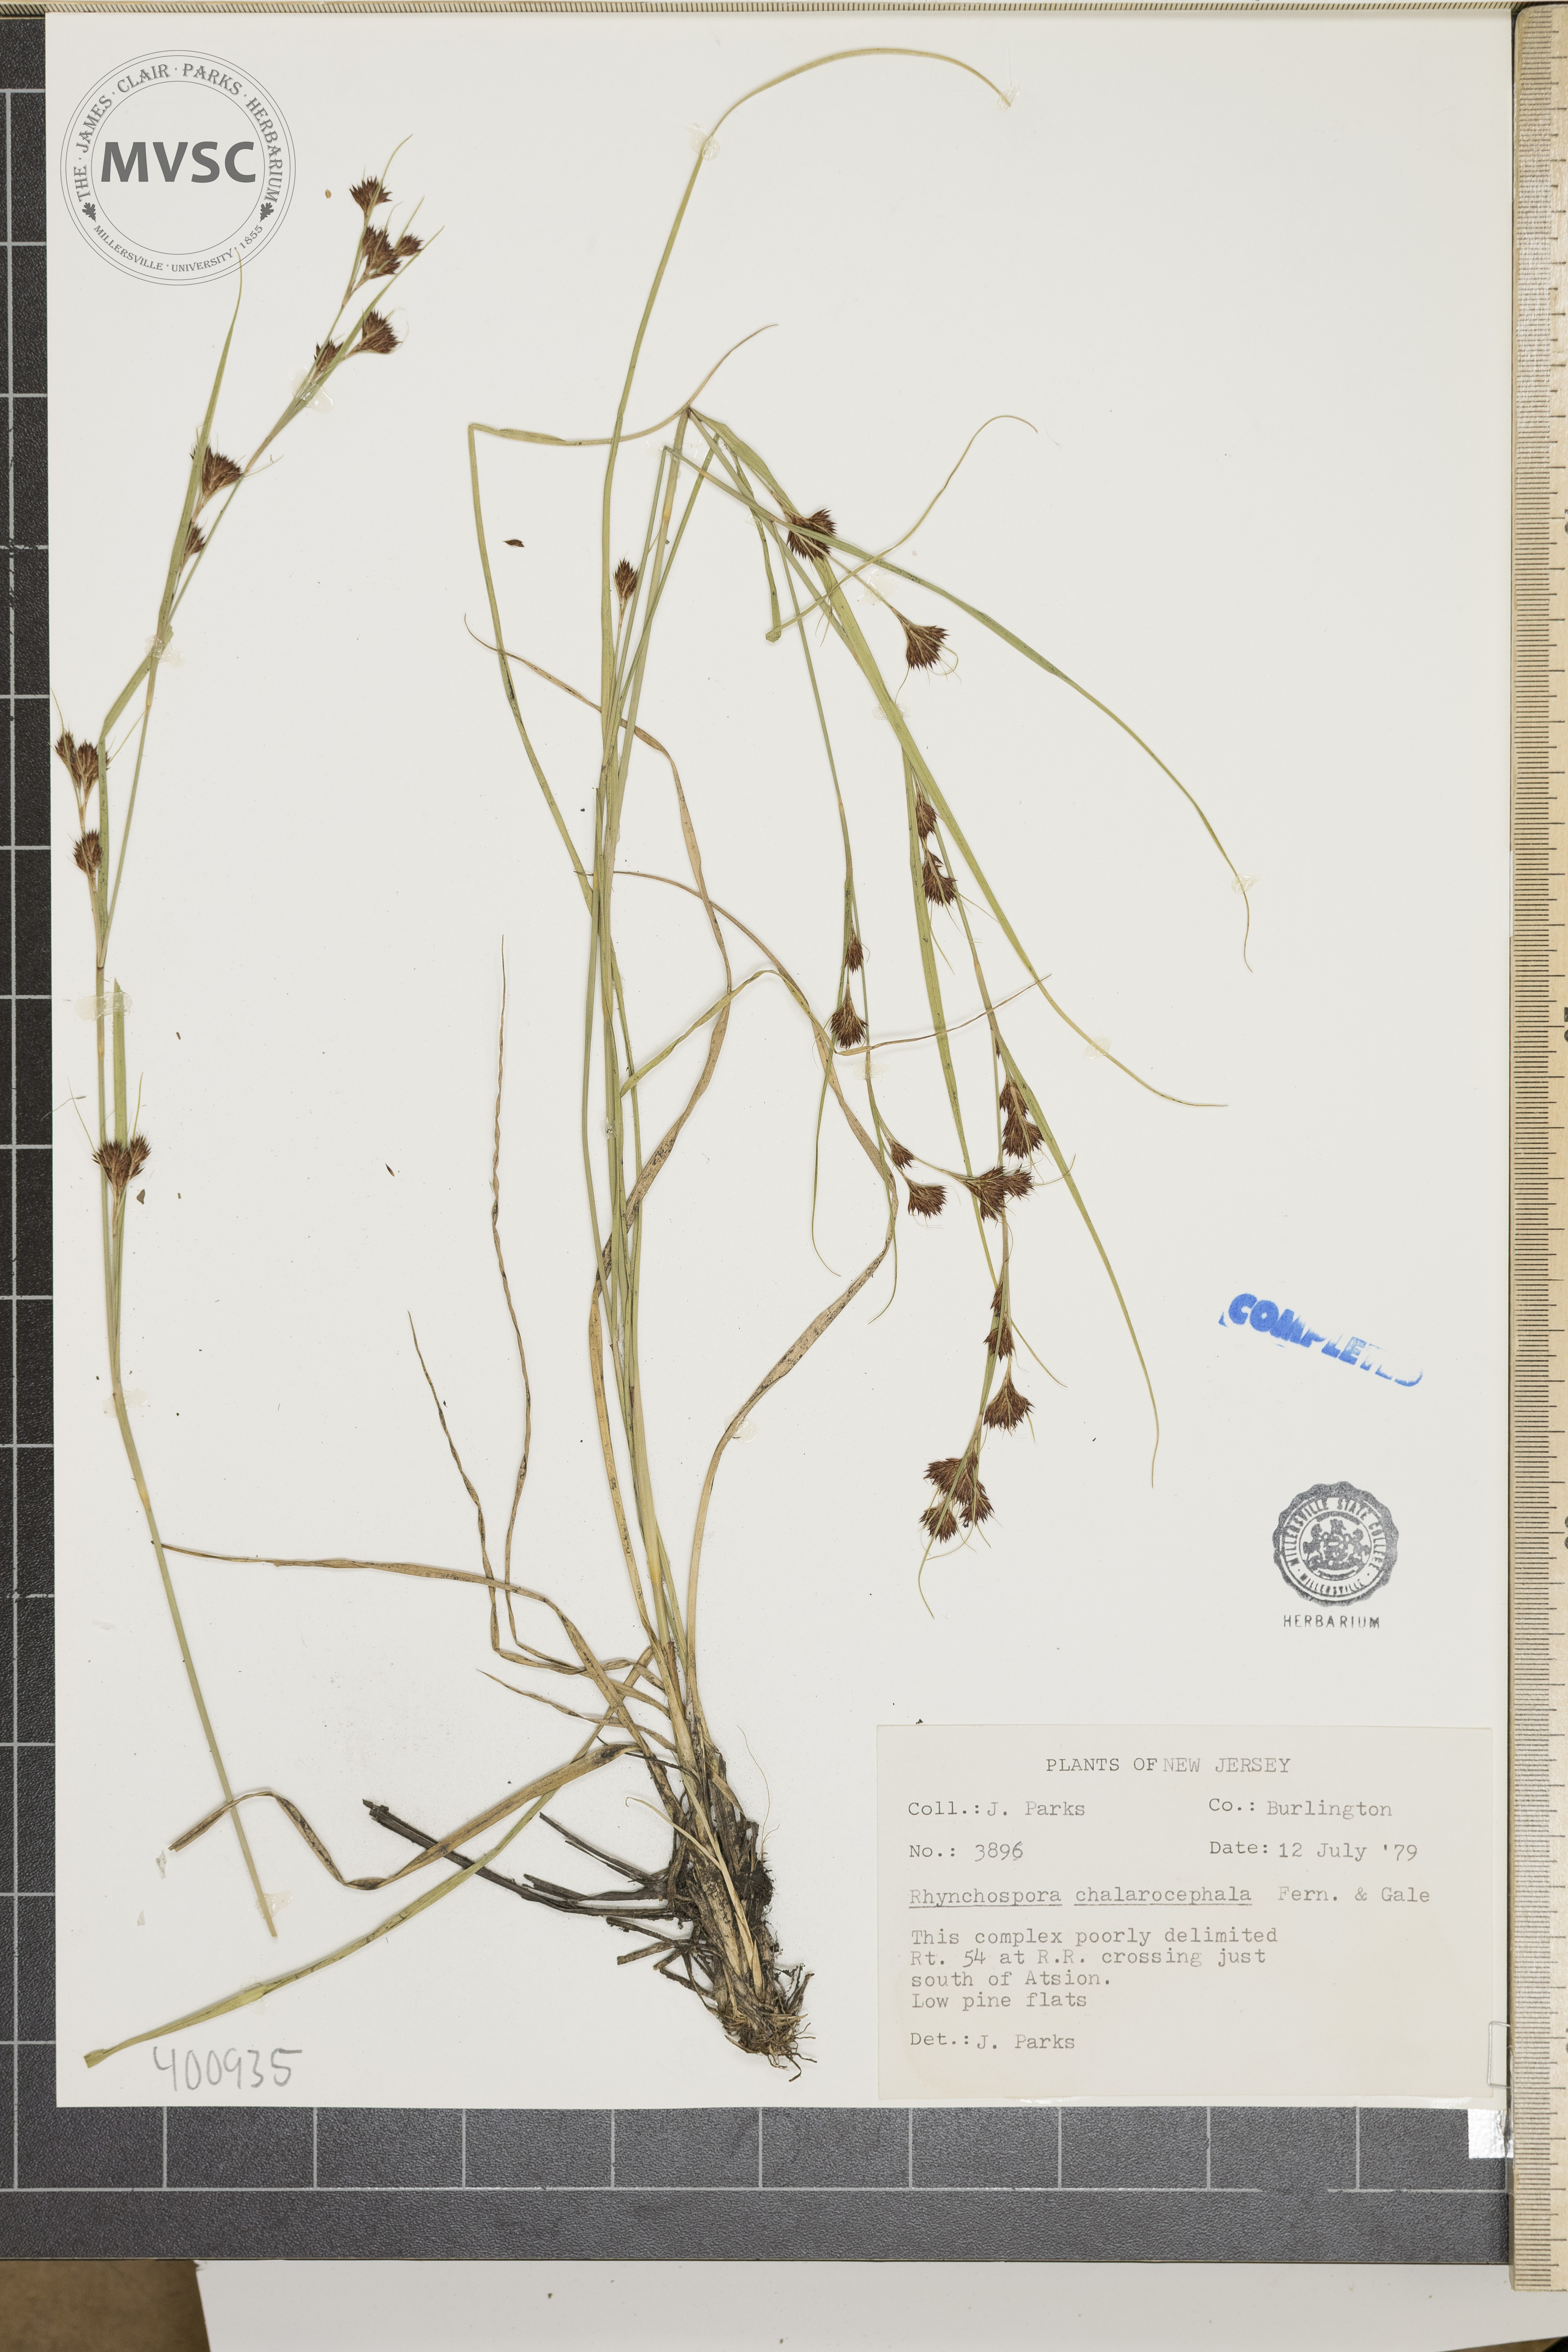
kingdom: Plantae
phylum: Tracheophyta
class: Liliopsida
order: Poales
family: Cyperaceae
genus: Rhynchospora
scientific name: Rhynchospora chalarocephala
